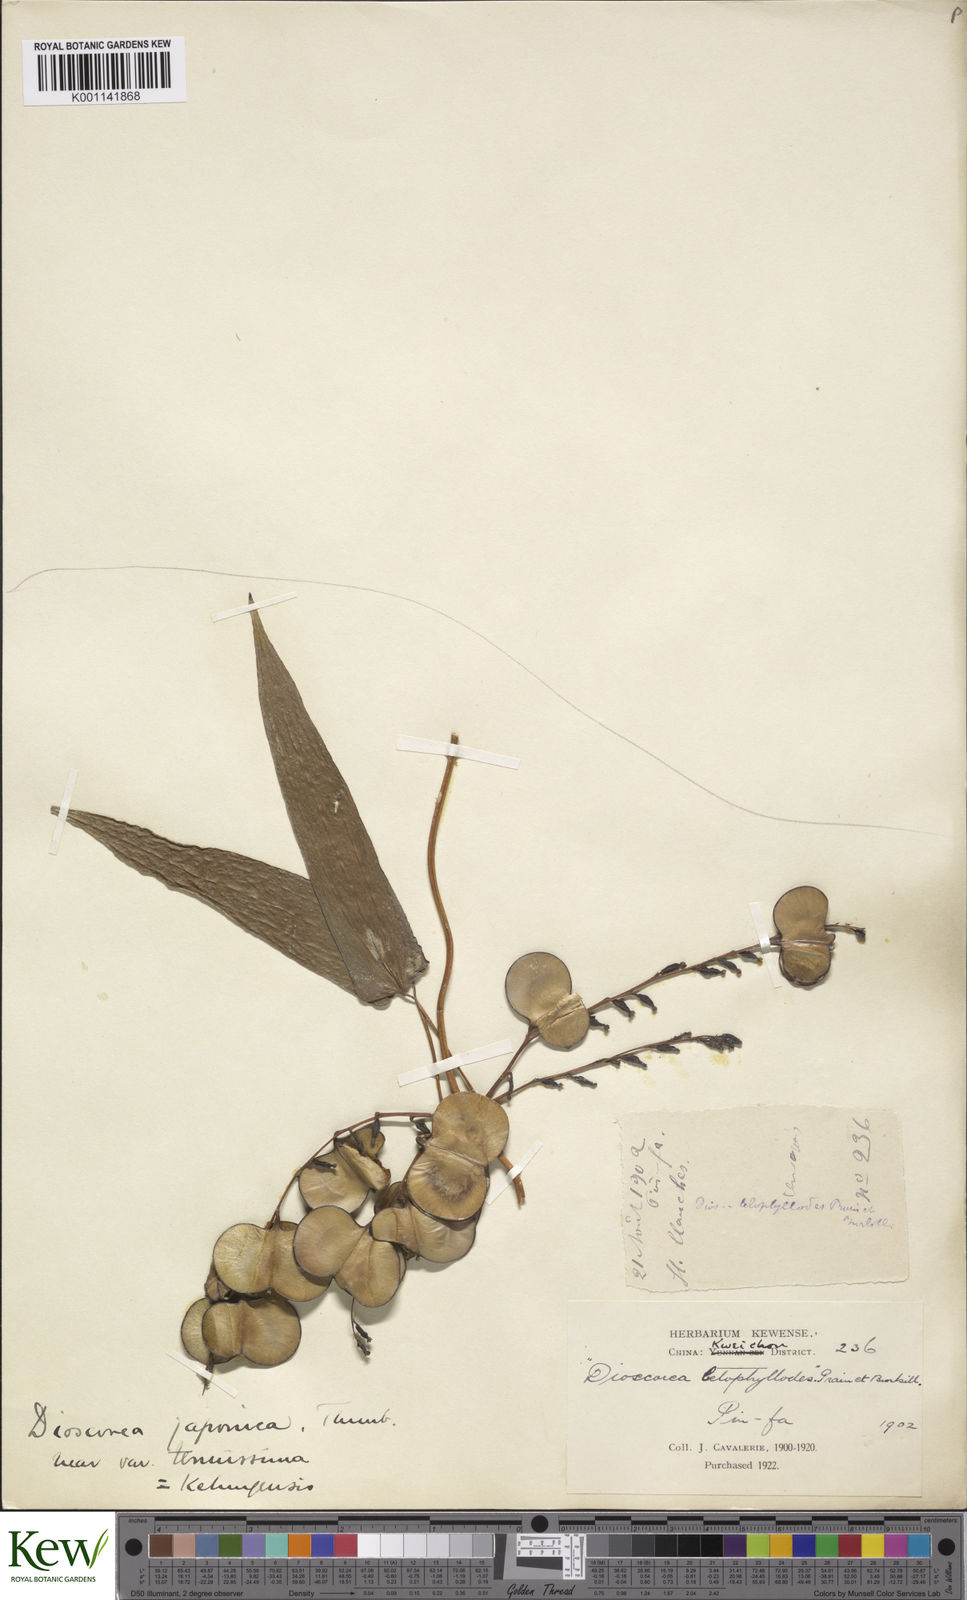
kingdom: Plantae
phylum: Tracheophyta
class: Liliopsida
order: Dioscoreales
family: Dioscoreaceae
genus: Dioscorea
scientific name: Dioscorea japonica
